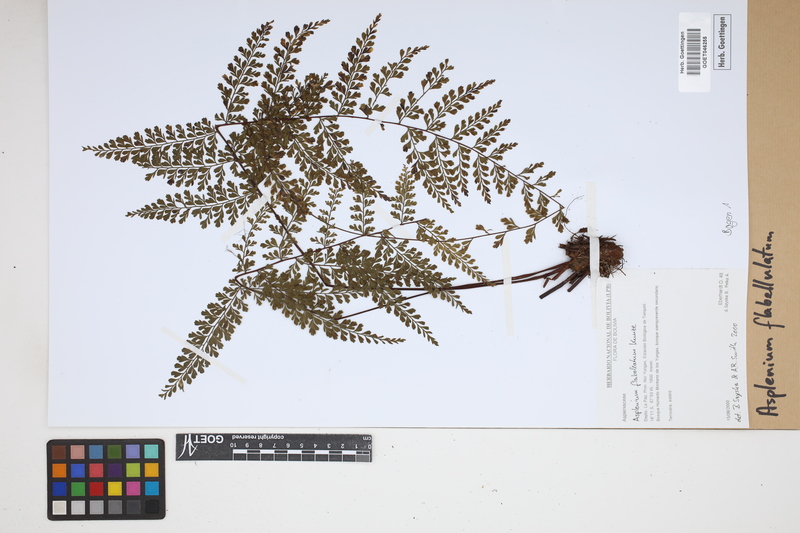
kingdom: Plantae
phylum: Tracheophyta
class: Polypodiopsida
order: Polypodiales
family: Aspleniaceae
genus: Asplenium
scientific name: Asplenium flabellulatum
